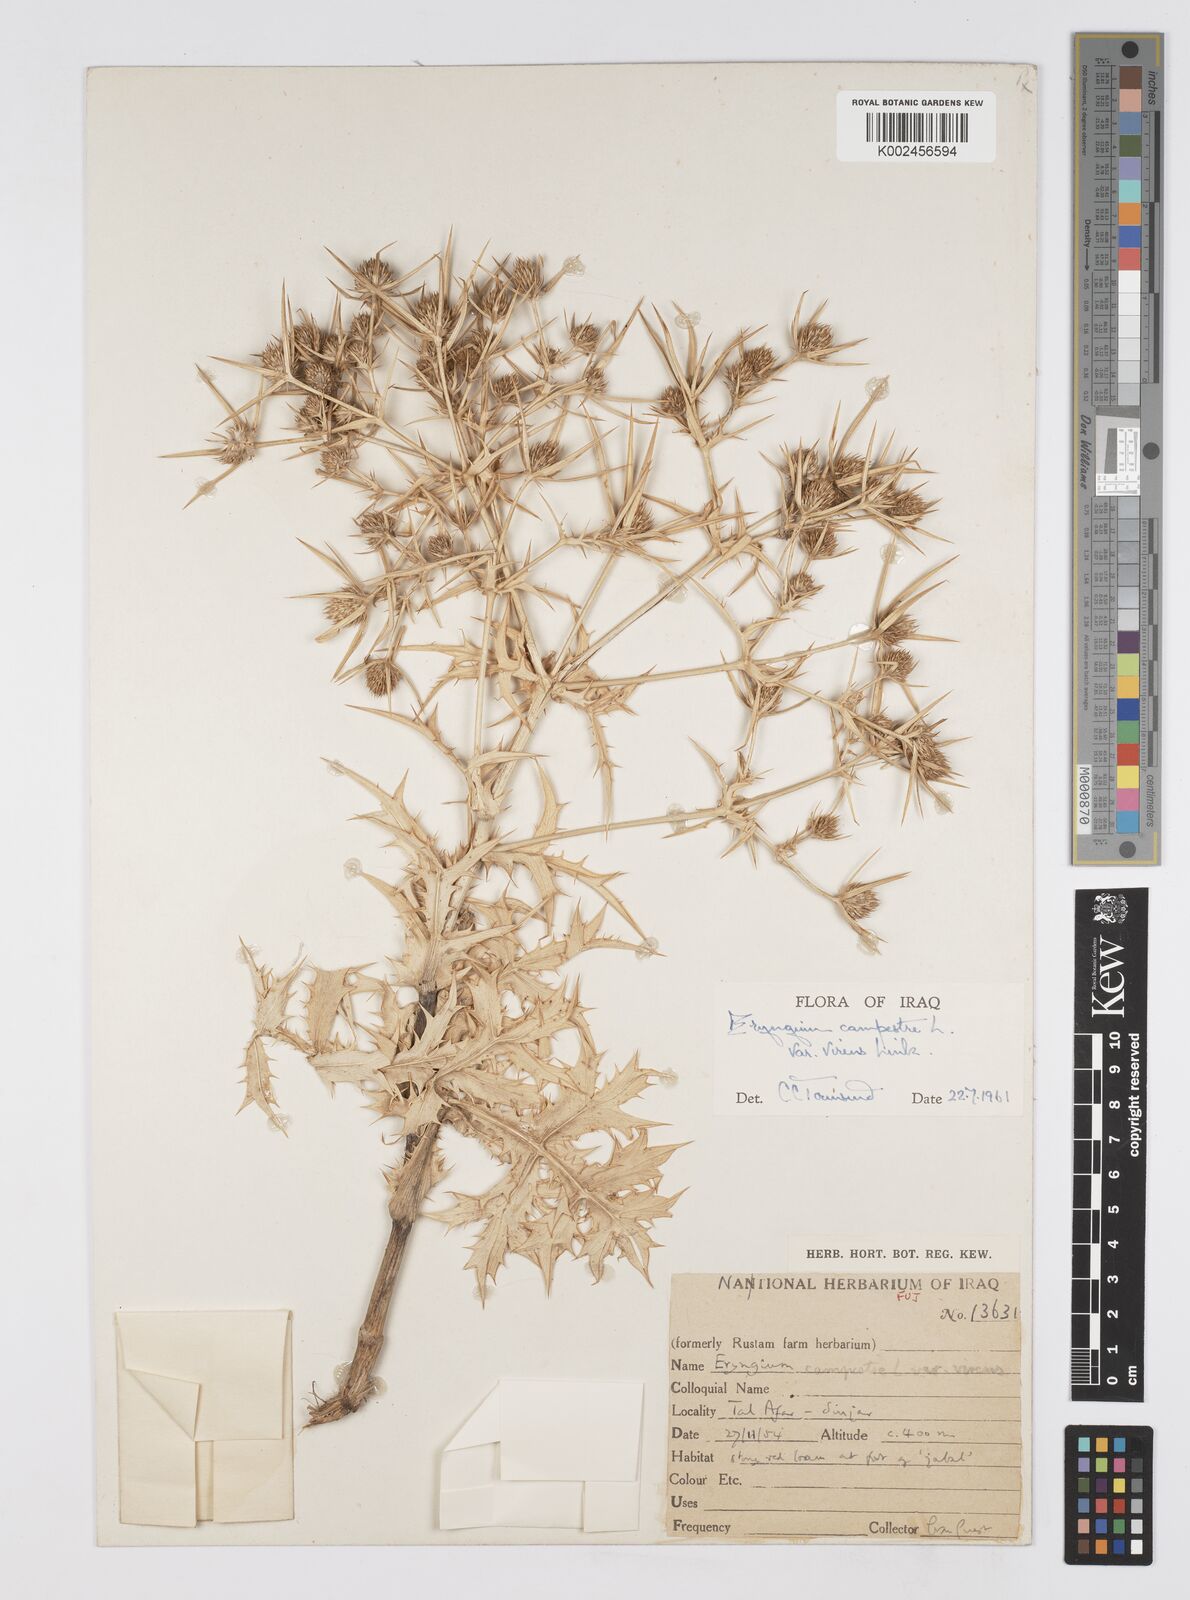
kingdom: Plantae
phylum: Tracheophyta
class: Magnoliopsida
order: Apiales
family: Apiaceae
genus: Eryngium
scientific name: Eryngium campestre
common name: Field eryngo
